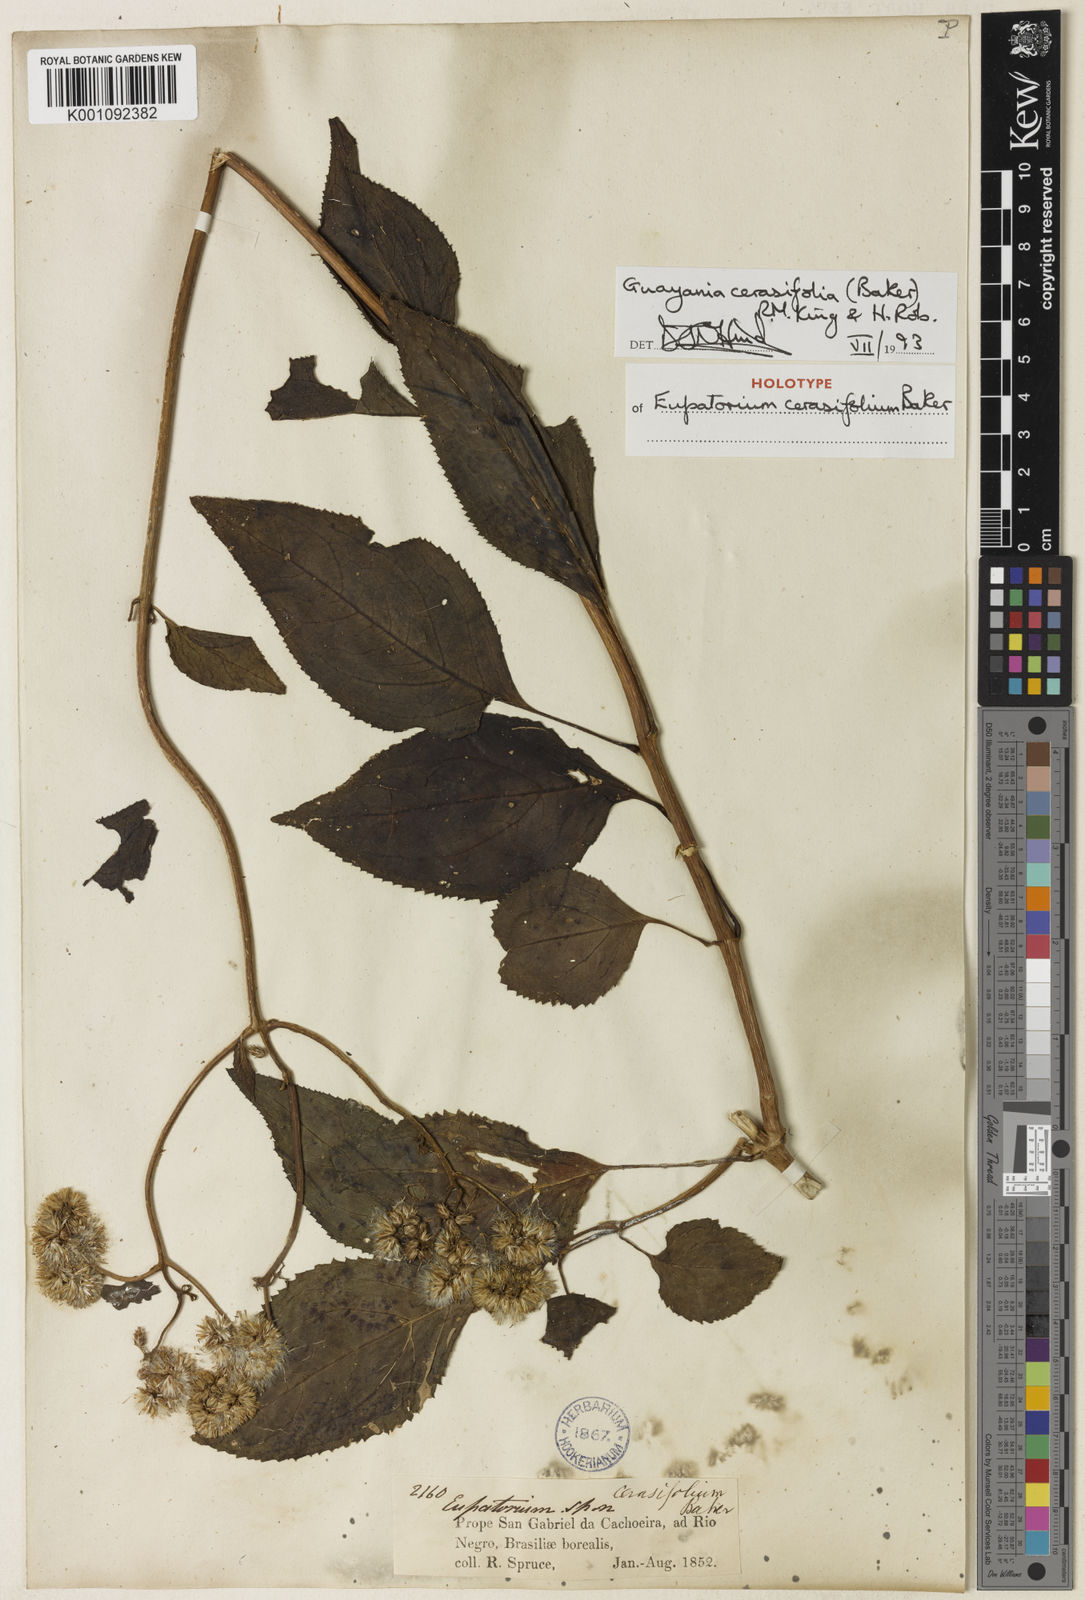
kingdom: Plantae
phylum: Tracheophyta
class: Magnoliopsida
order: Asterales
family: Asteraceae
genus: Guayania
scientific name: Guayania cerasifolia
